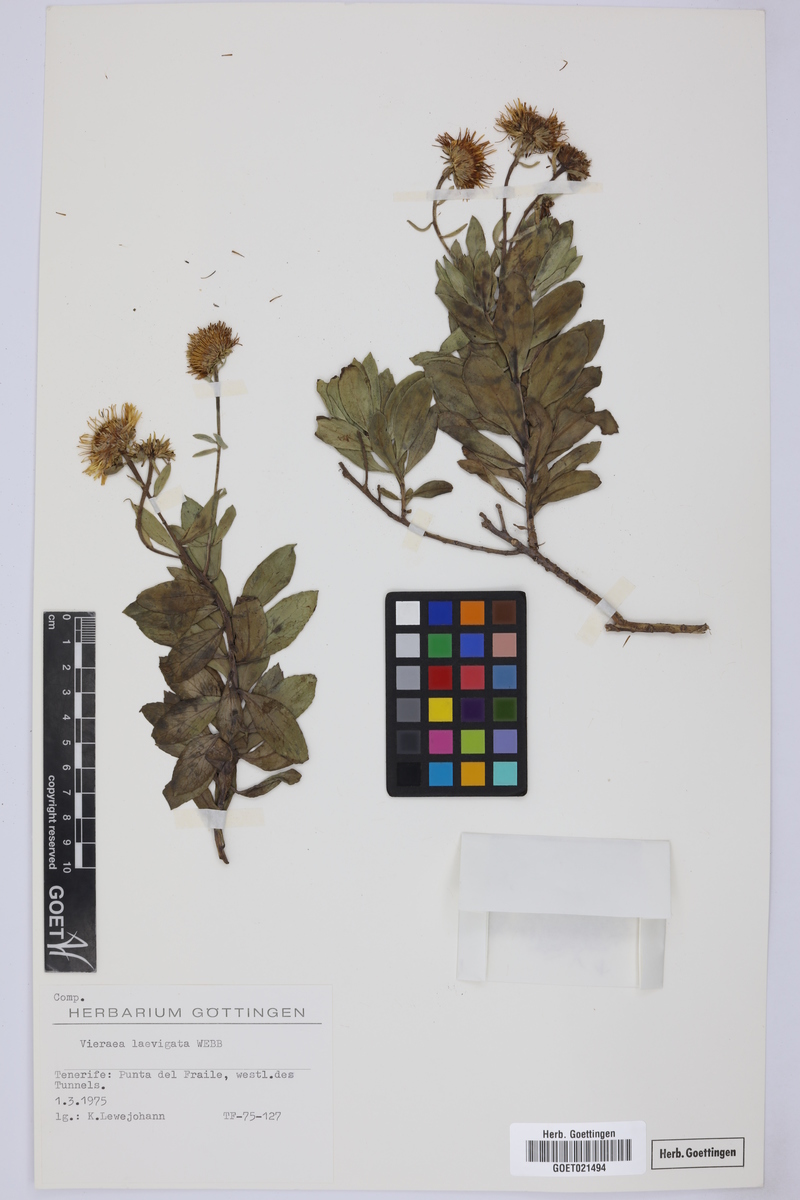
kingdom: Plantae
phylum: Tracheophyta
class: Magnoliopsida
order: Asterales
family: Asteraceae
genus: Vieraea
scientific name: Vieraea laevigata
